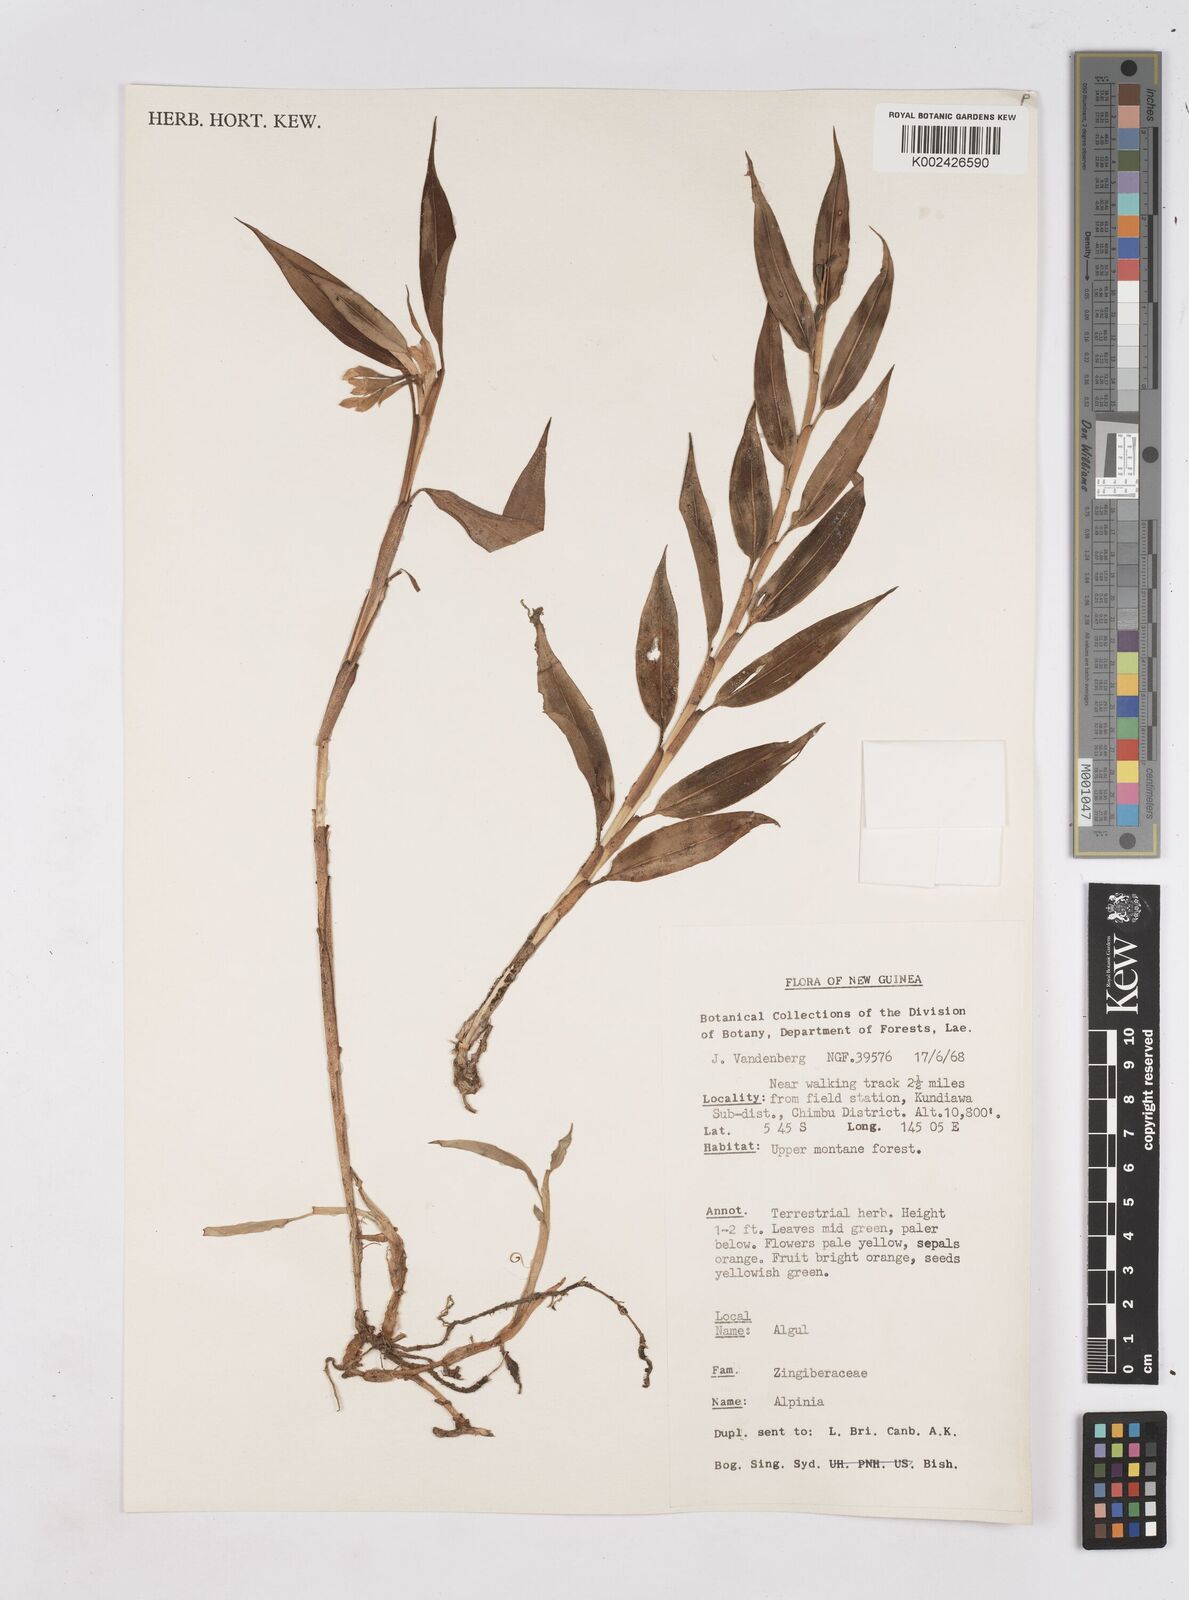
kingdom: Plantae
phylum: Tracheophyta
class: Liliopsida
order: Zingiberales
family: Zingiberaceae
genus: Riedelia
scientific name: Riedelia
